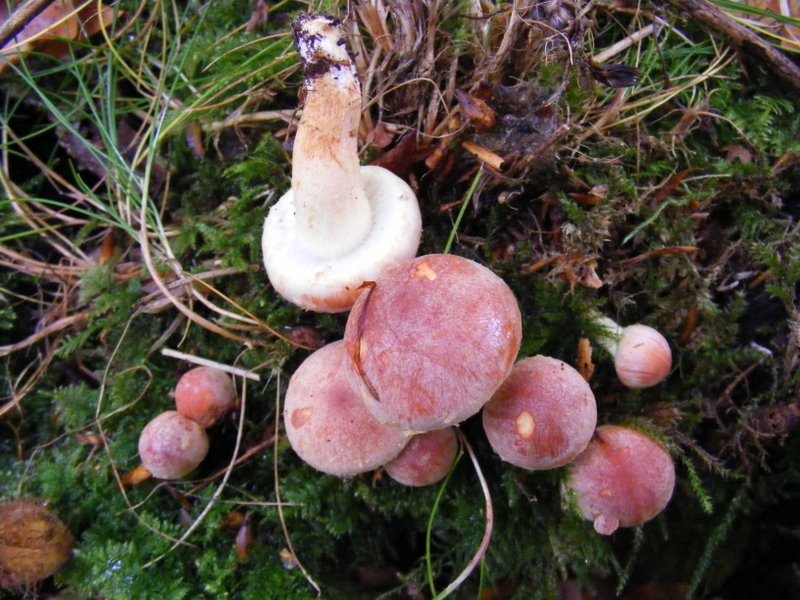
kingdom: Fungi
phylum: Basidiomycota
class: Agaricomycetes
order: Agaricales
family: Strophariaceae
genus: Hypholoma
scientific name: Hypholoma lateritium
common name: teglrød svovlhat
